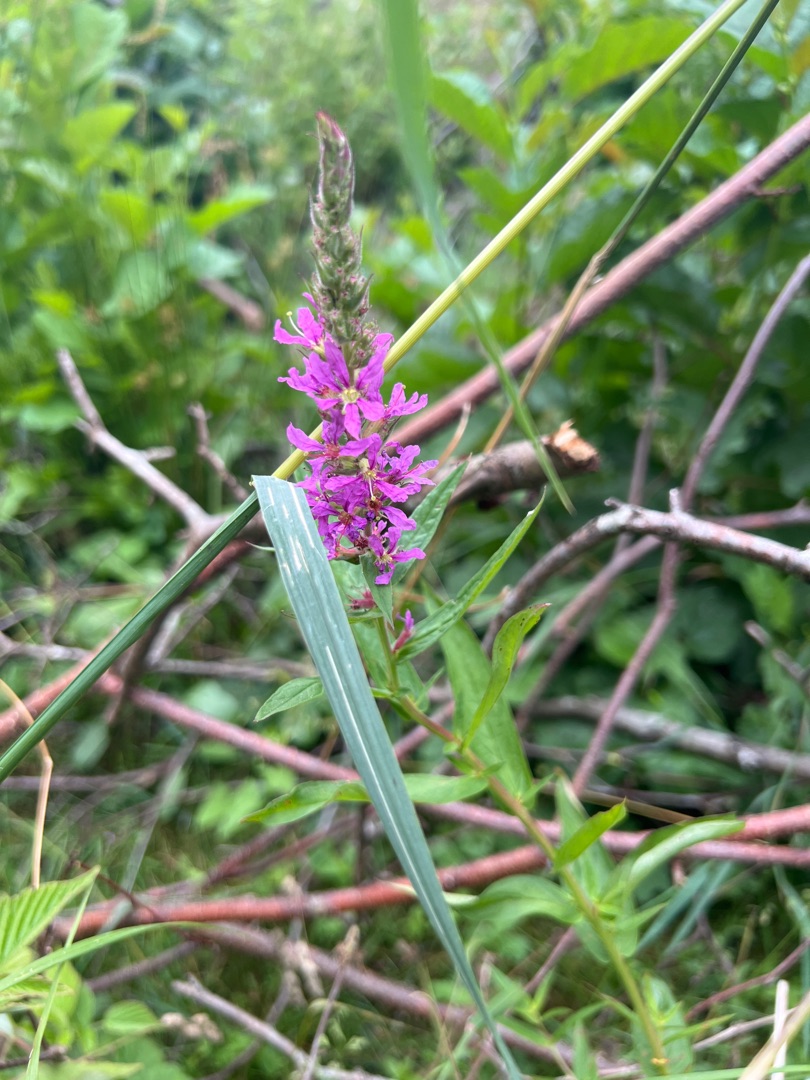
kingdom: Plantae
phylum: Tracheophyta
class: Magnoliopsida
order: Myrtales
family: Lythraceae
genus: Lythrum
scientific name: Lythrum salicaria
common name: Kattehale
